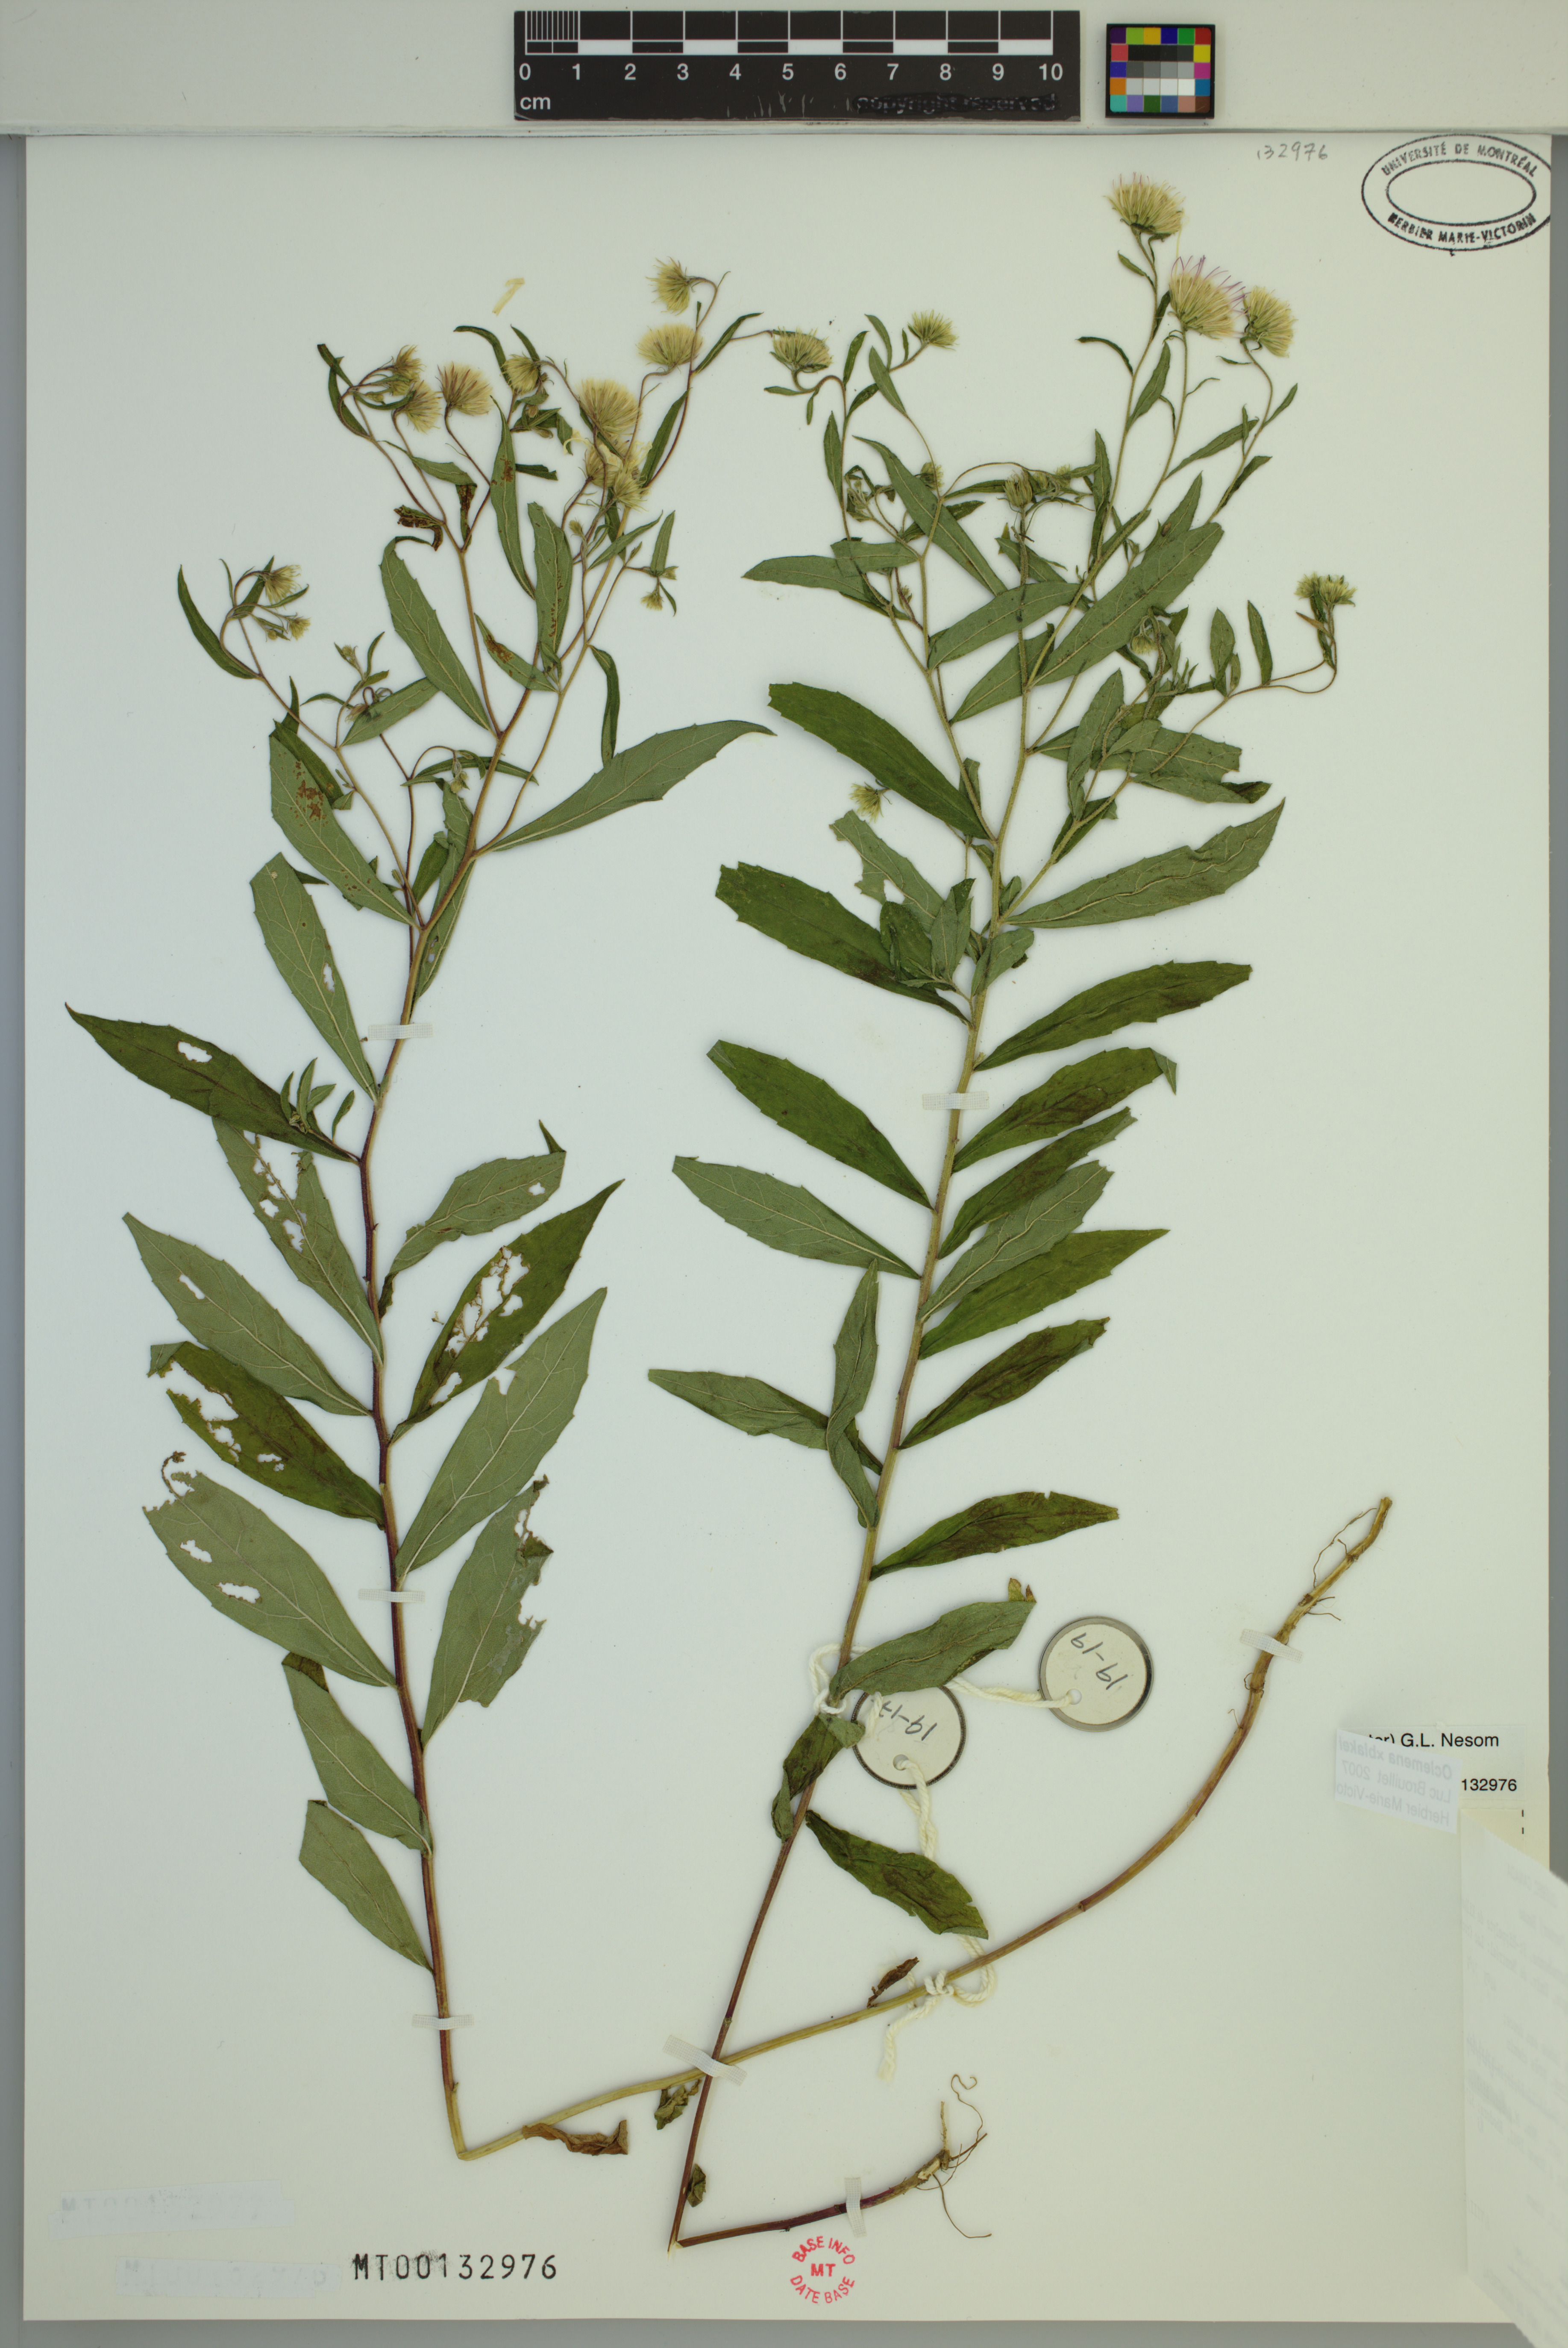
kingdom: Plantae
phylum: Tracheophyta
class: Magnoliopsida
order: Asterales
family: Asteraceae
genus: Oclemena
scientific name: Oclemena blakei
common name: Blake's aster
